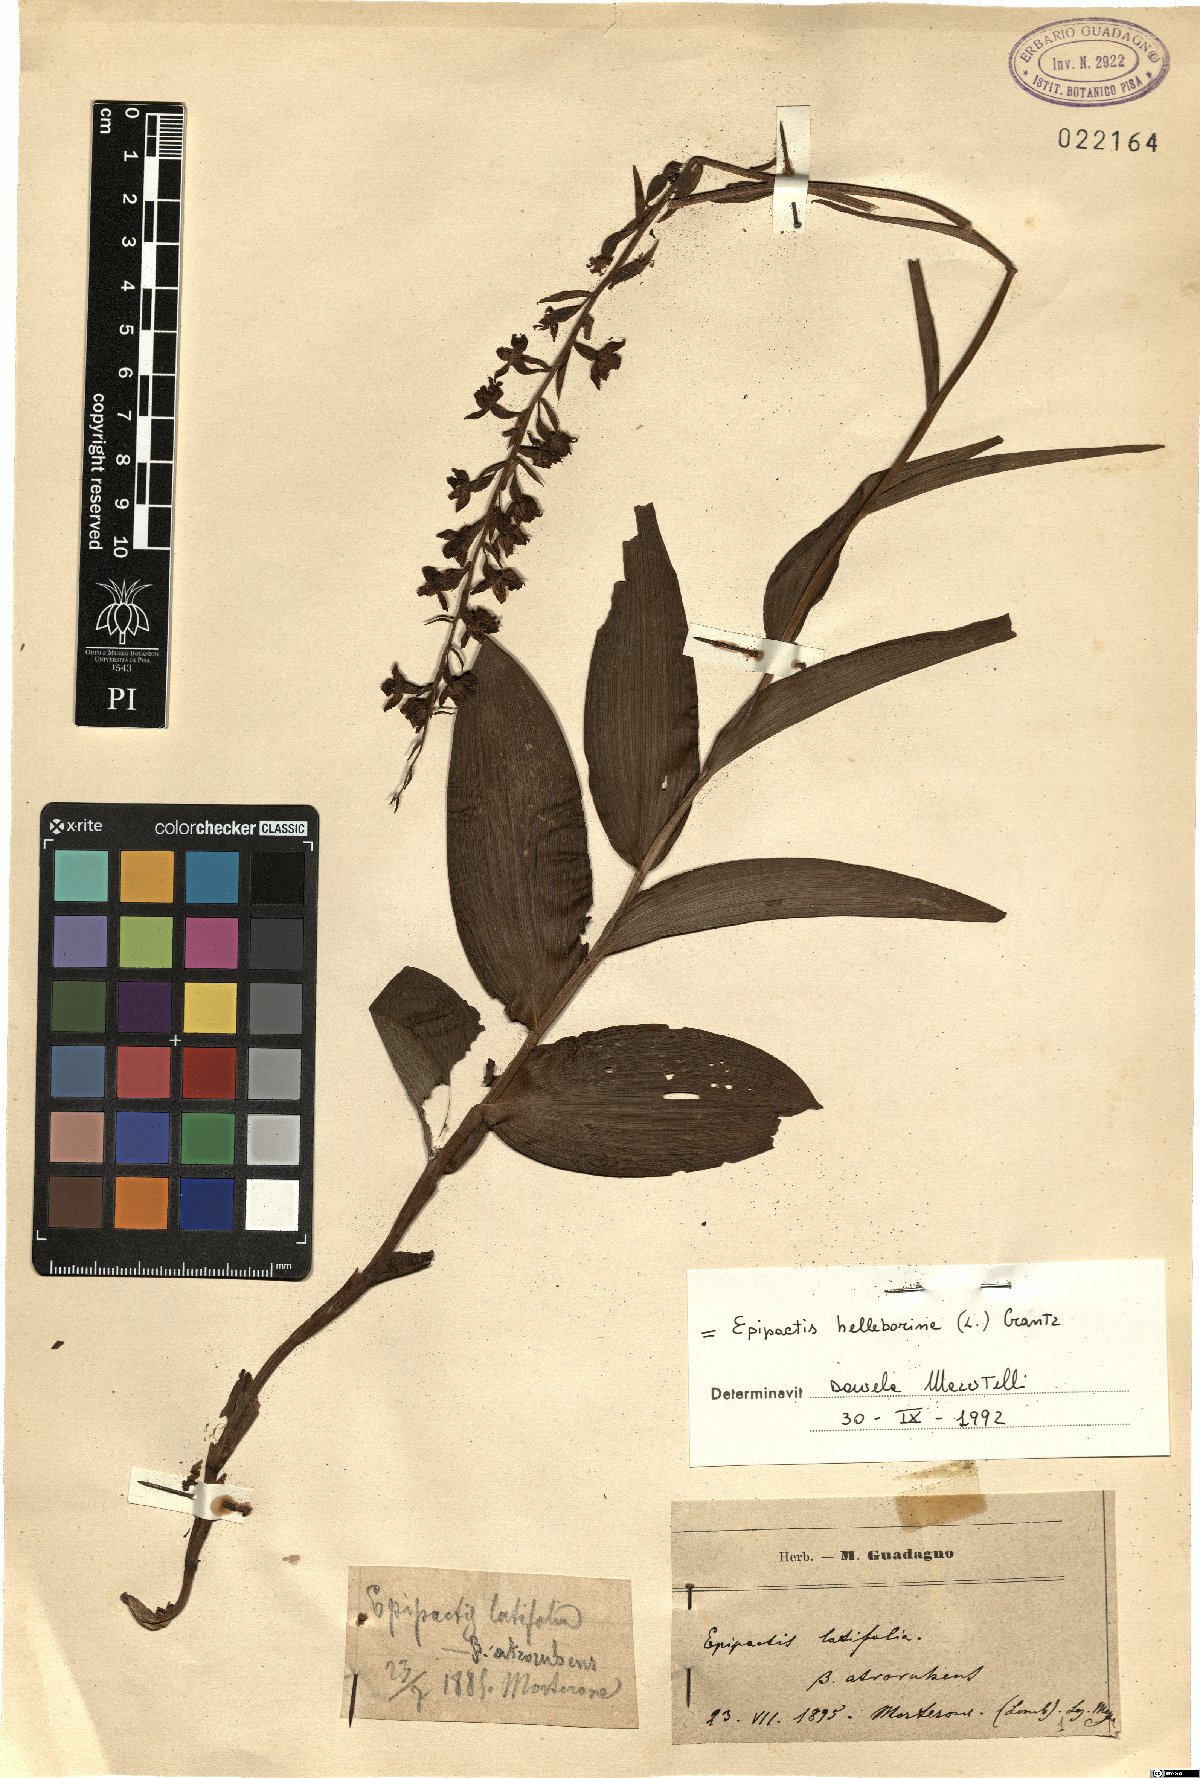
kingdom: Plantae
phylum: Tracheophyta
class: Liliopsida
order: Asparagales
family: Orchidaceae
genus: Epipactis
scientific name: Epipactis helleborine
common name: Broad-leaved helleborine
